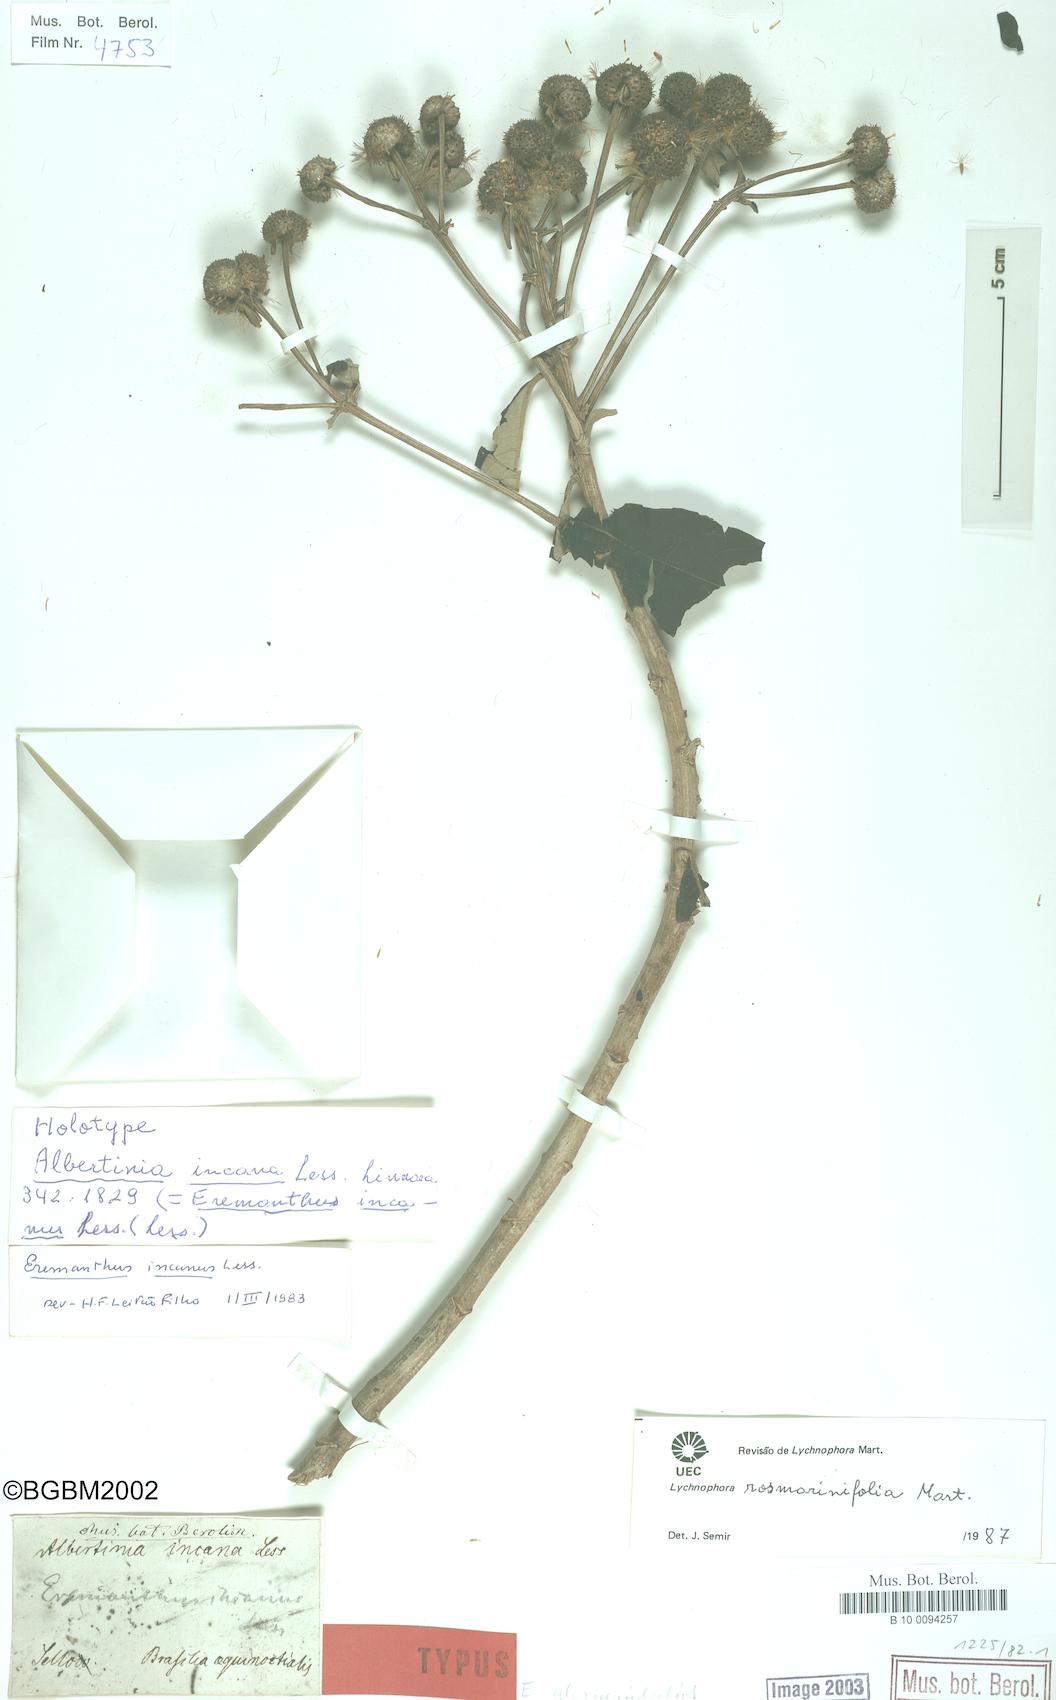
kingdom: Plantae
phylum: Tracheophyta
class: Magnoliopsida
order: Asterales
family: Asteraceae
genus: Lychnophora
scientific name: Lychnophora rosmarinifolia
